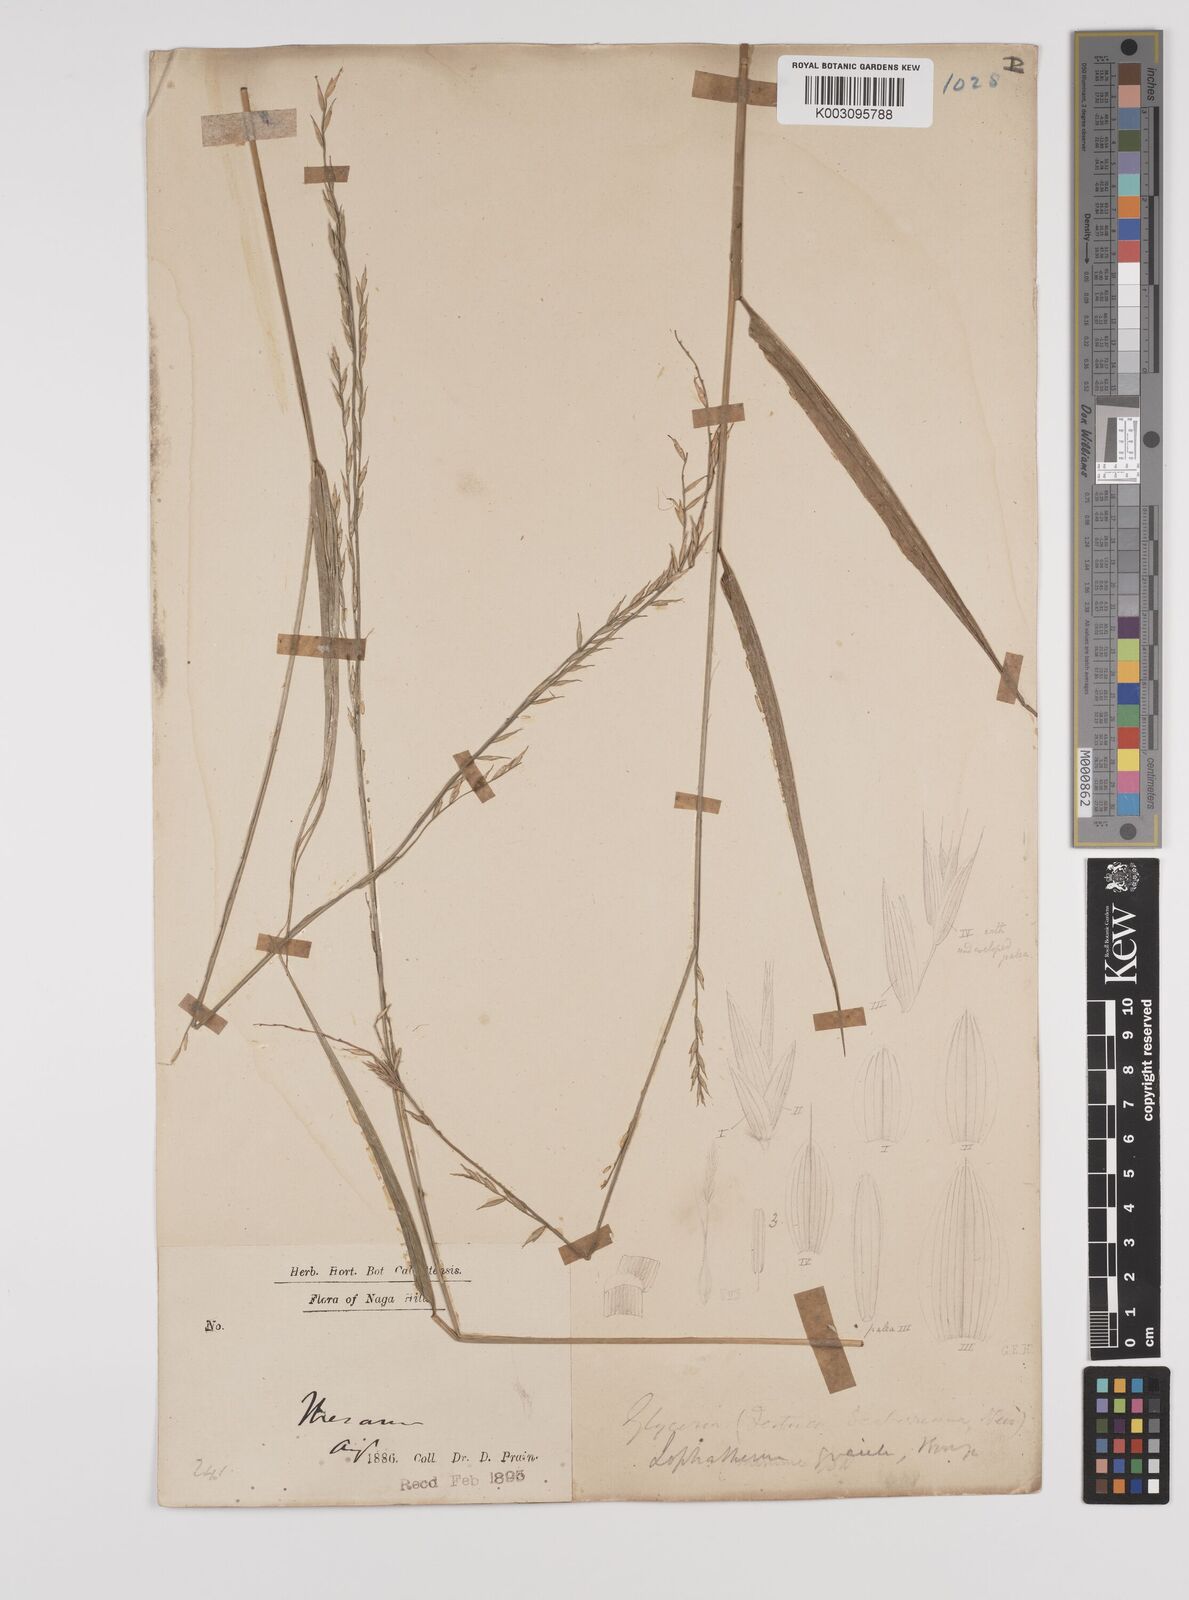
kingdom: Plantae
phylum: Tracheophyta
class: Liliopsida
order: Poales
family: Poaceae
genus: Lophatherum
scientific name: Lophatherum gracile
